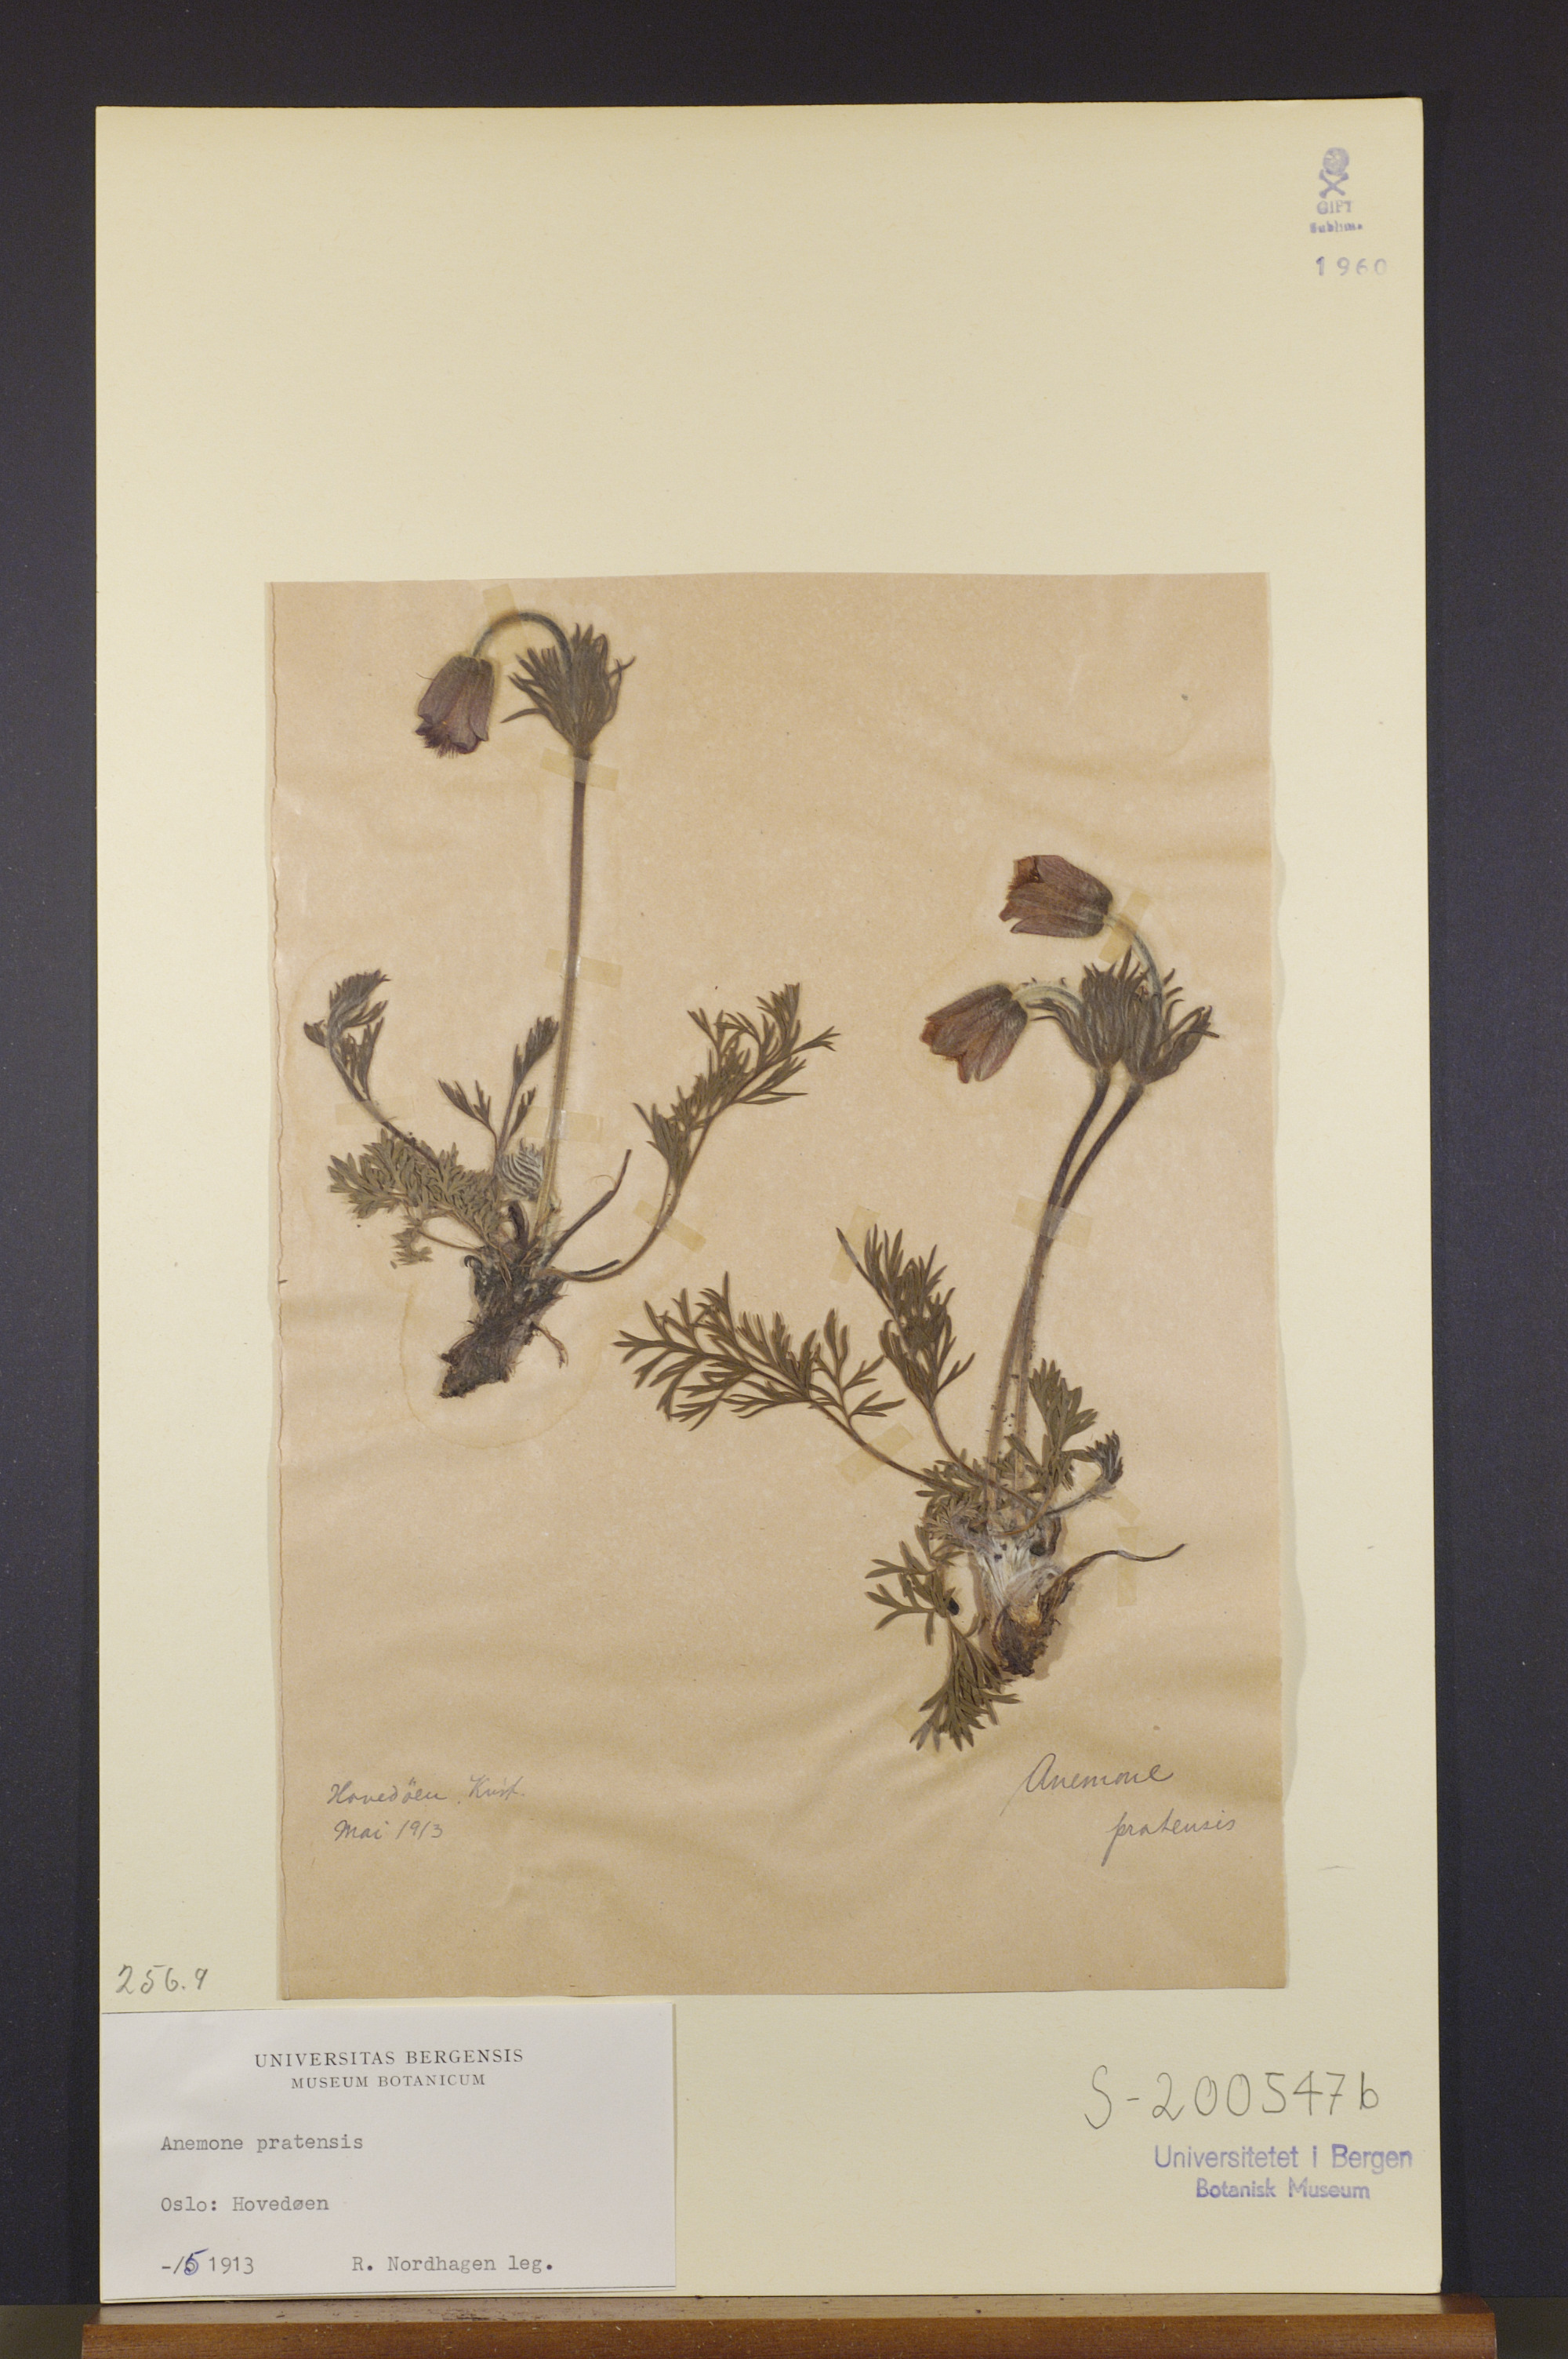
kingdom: Plantae
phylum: Tracheophyta
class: Magnoliopsida
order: Ranunculales
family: Ranunculaceae
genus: Pulsatilla
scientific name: Pulsatilla pratensis
